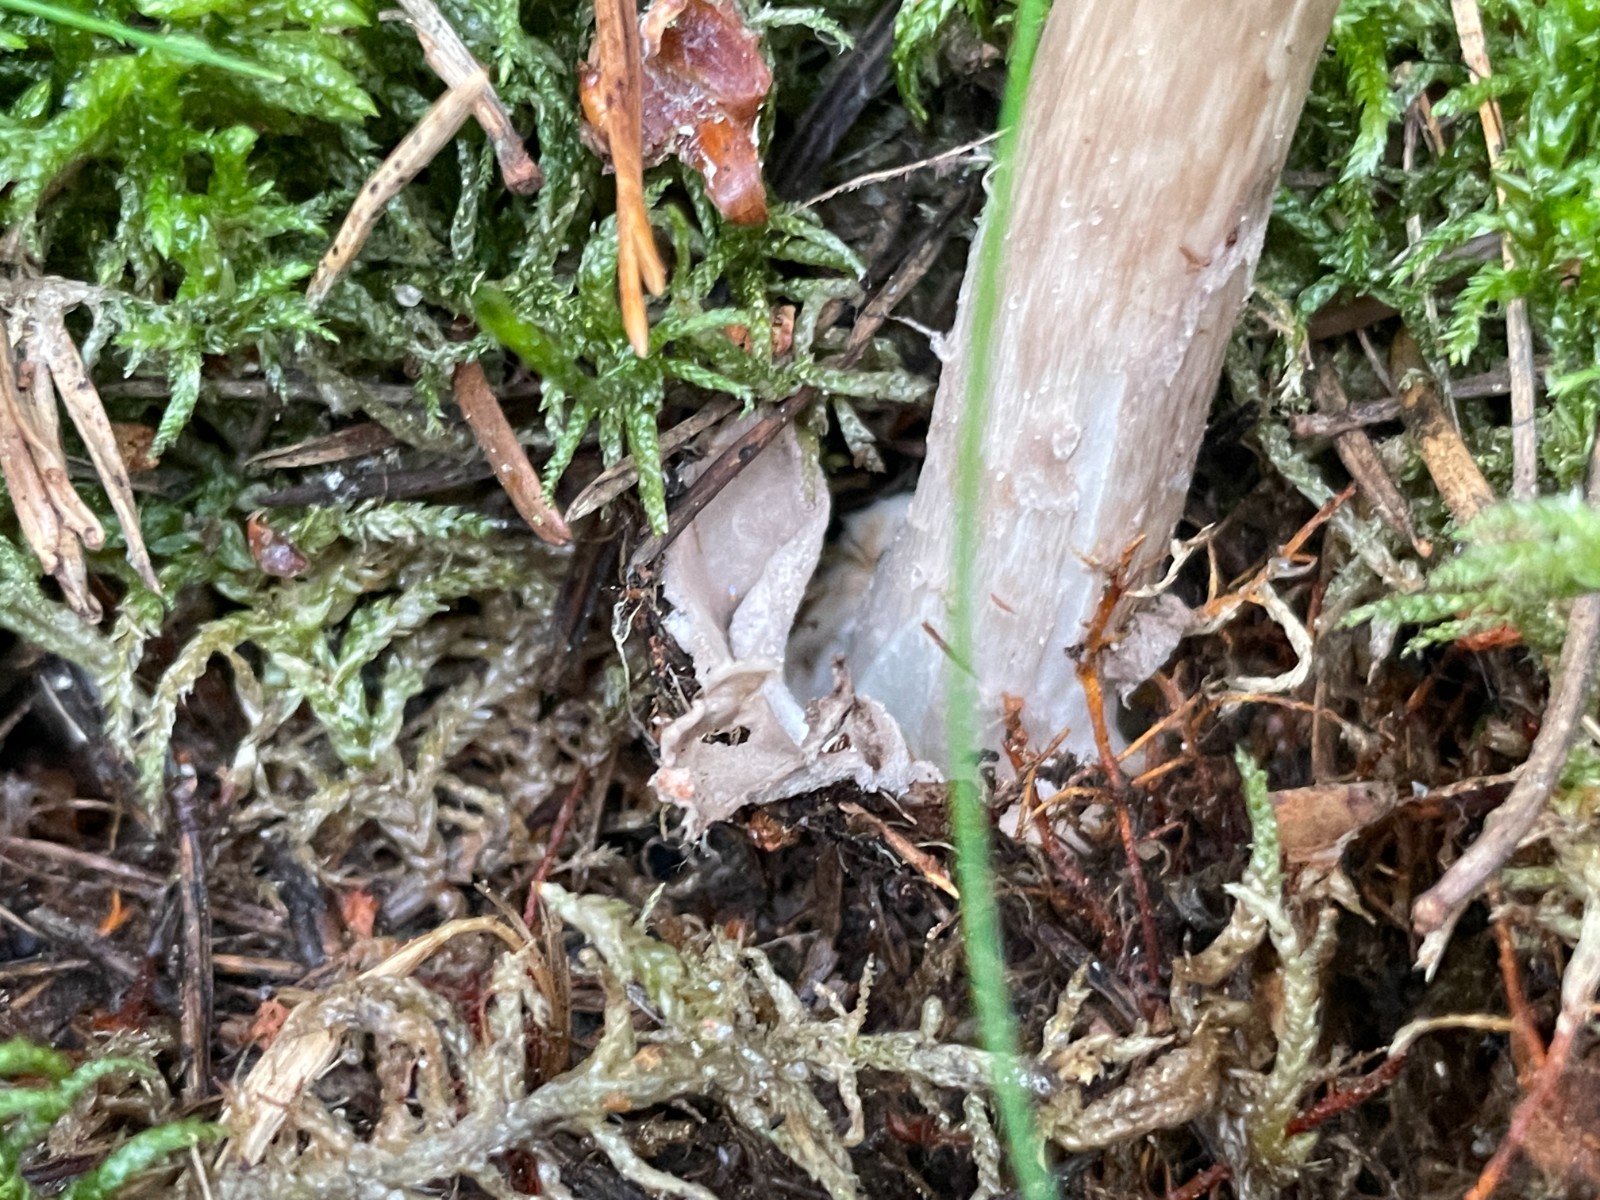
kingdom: Fungi
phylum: Basidiomycota
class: Agaricomycetes
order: Agaricales
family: Amanitaceae
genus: Amanita
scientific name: Amanita porphyria
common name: porfyr-fluesvamp
